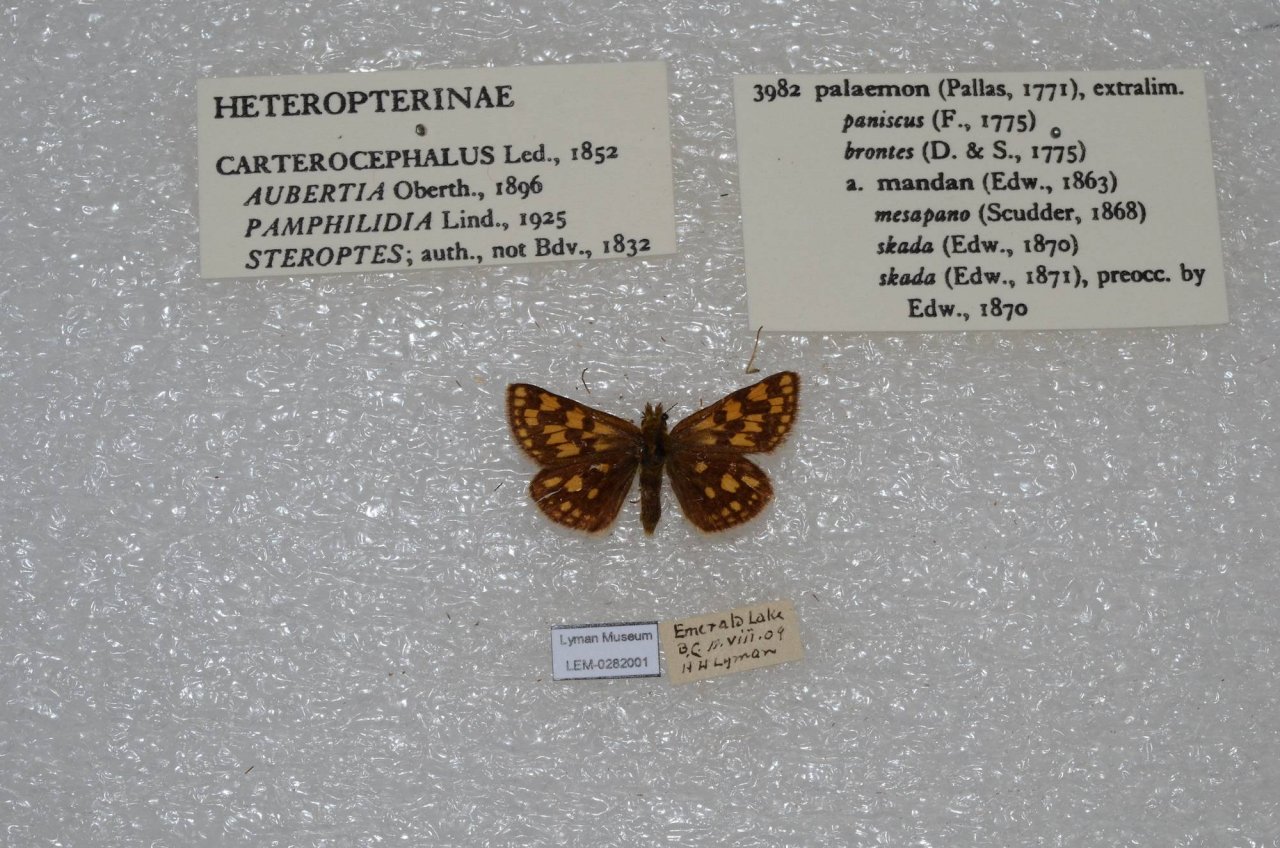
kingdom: Animalia
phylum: Arthropoda
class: Insecta
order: Lepidoptera
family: Hesperiidae
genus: Carterocephalus
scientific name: Carterocephalus palaemon
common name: Chequered Skipper
